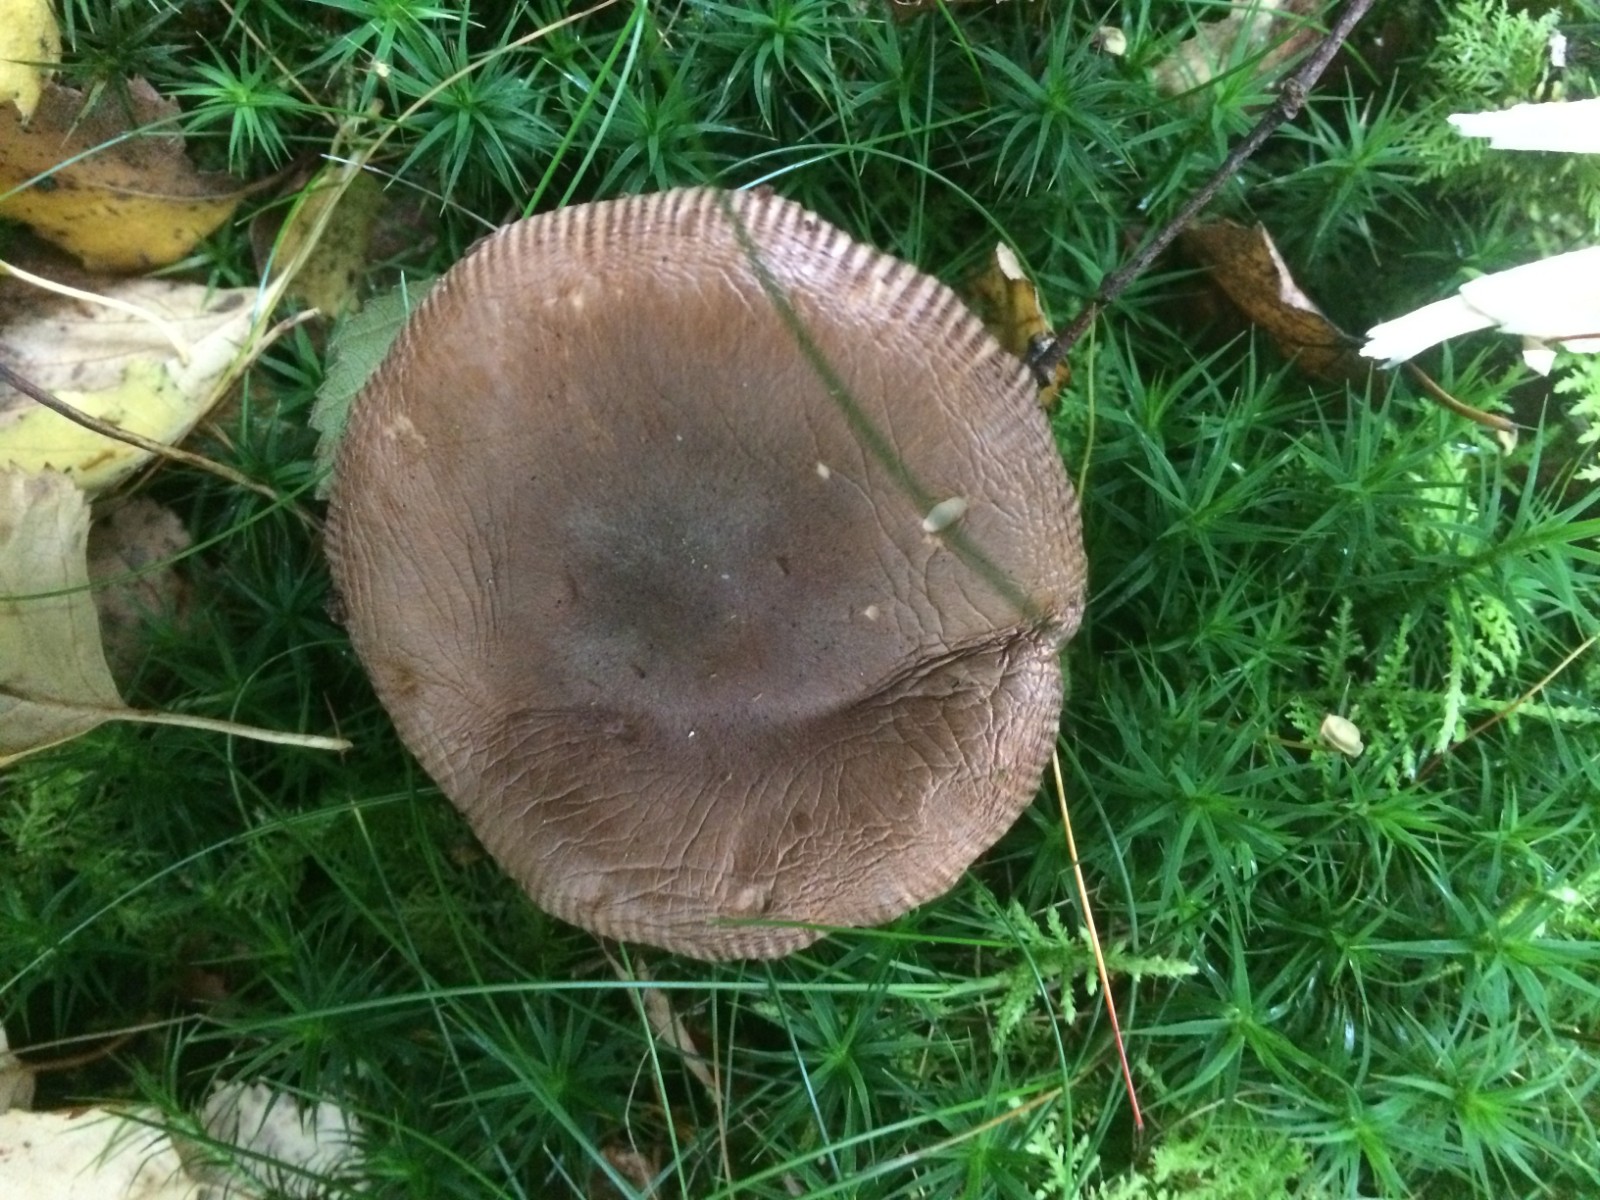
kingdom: Fungi
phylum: Basidiomycota
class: Agaricomycetes
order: Agaricales
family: Amanitaceae
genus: Amanita
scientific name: Amanita fulva
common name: brun kam-fluesvamp
